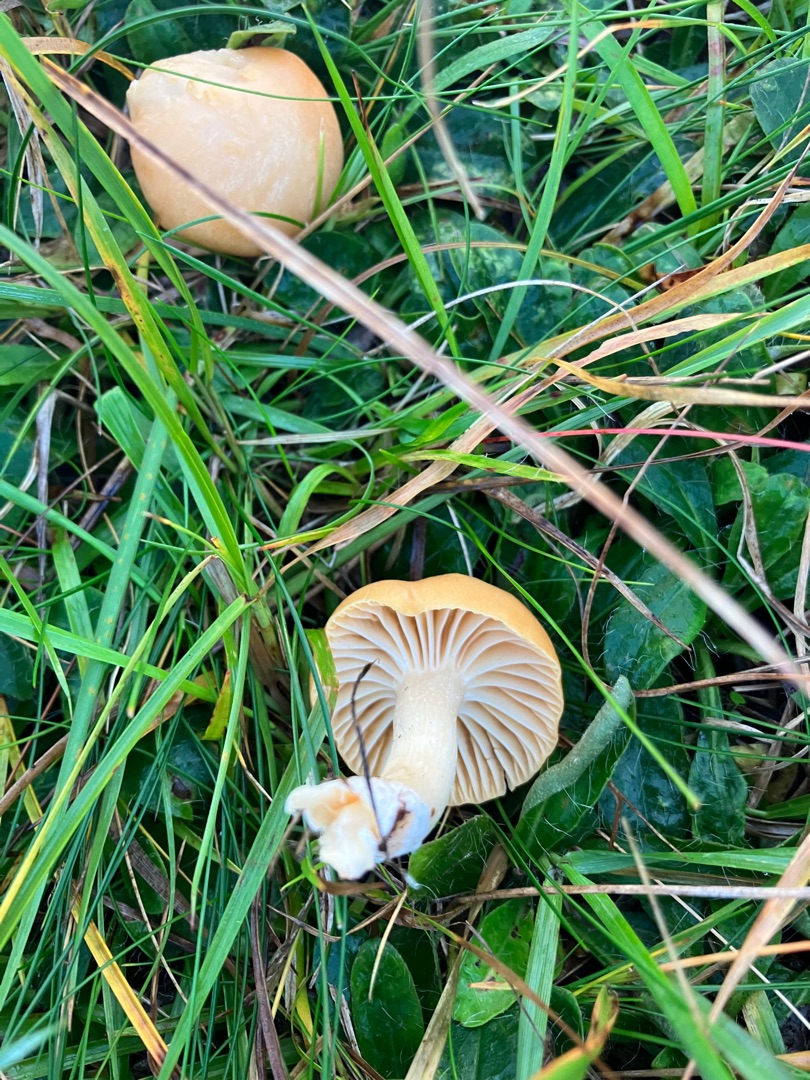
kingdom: Fungi
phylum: Basidiomycota
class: Agaricomycetes
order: Agaricales
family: Hygrophoraceae
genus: Cuphophyllus
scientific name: Cuphophyllus pratensis
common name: Eng-vokshat
